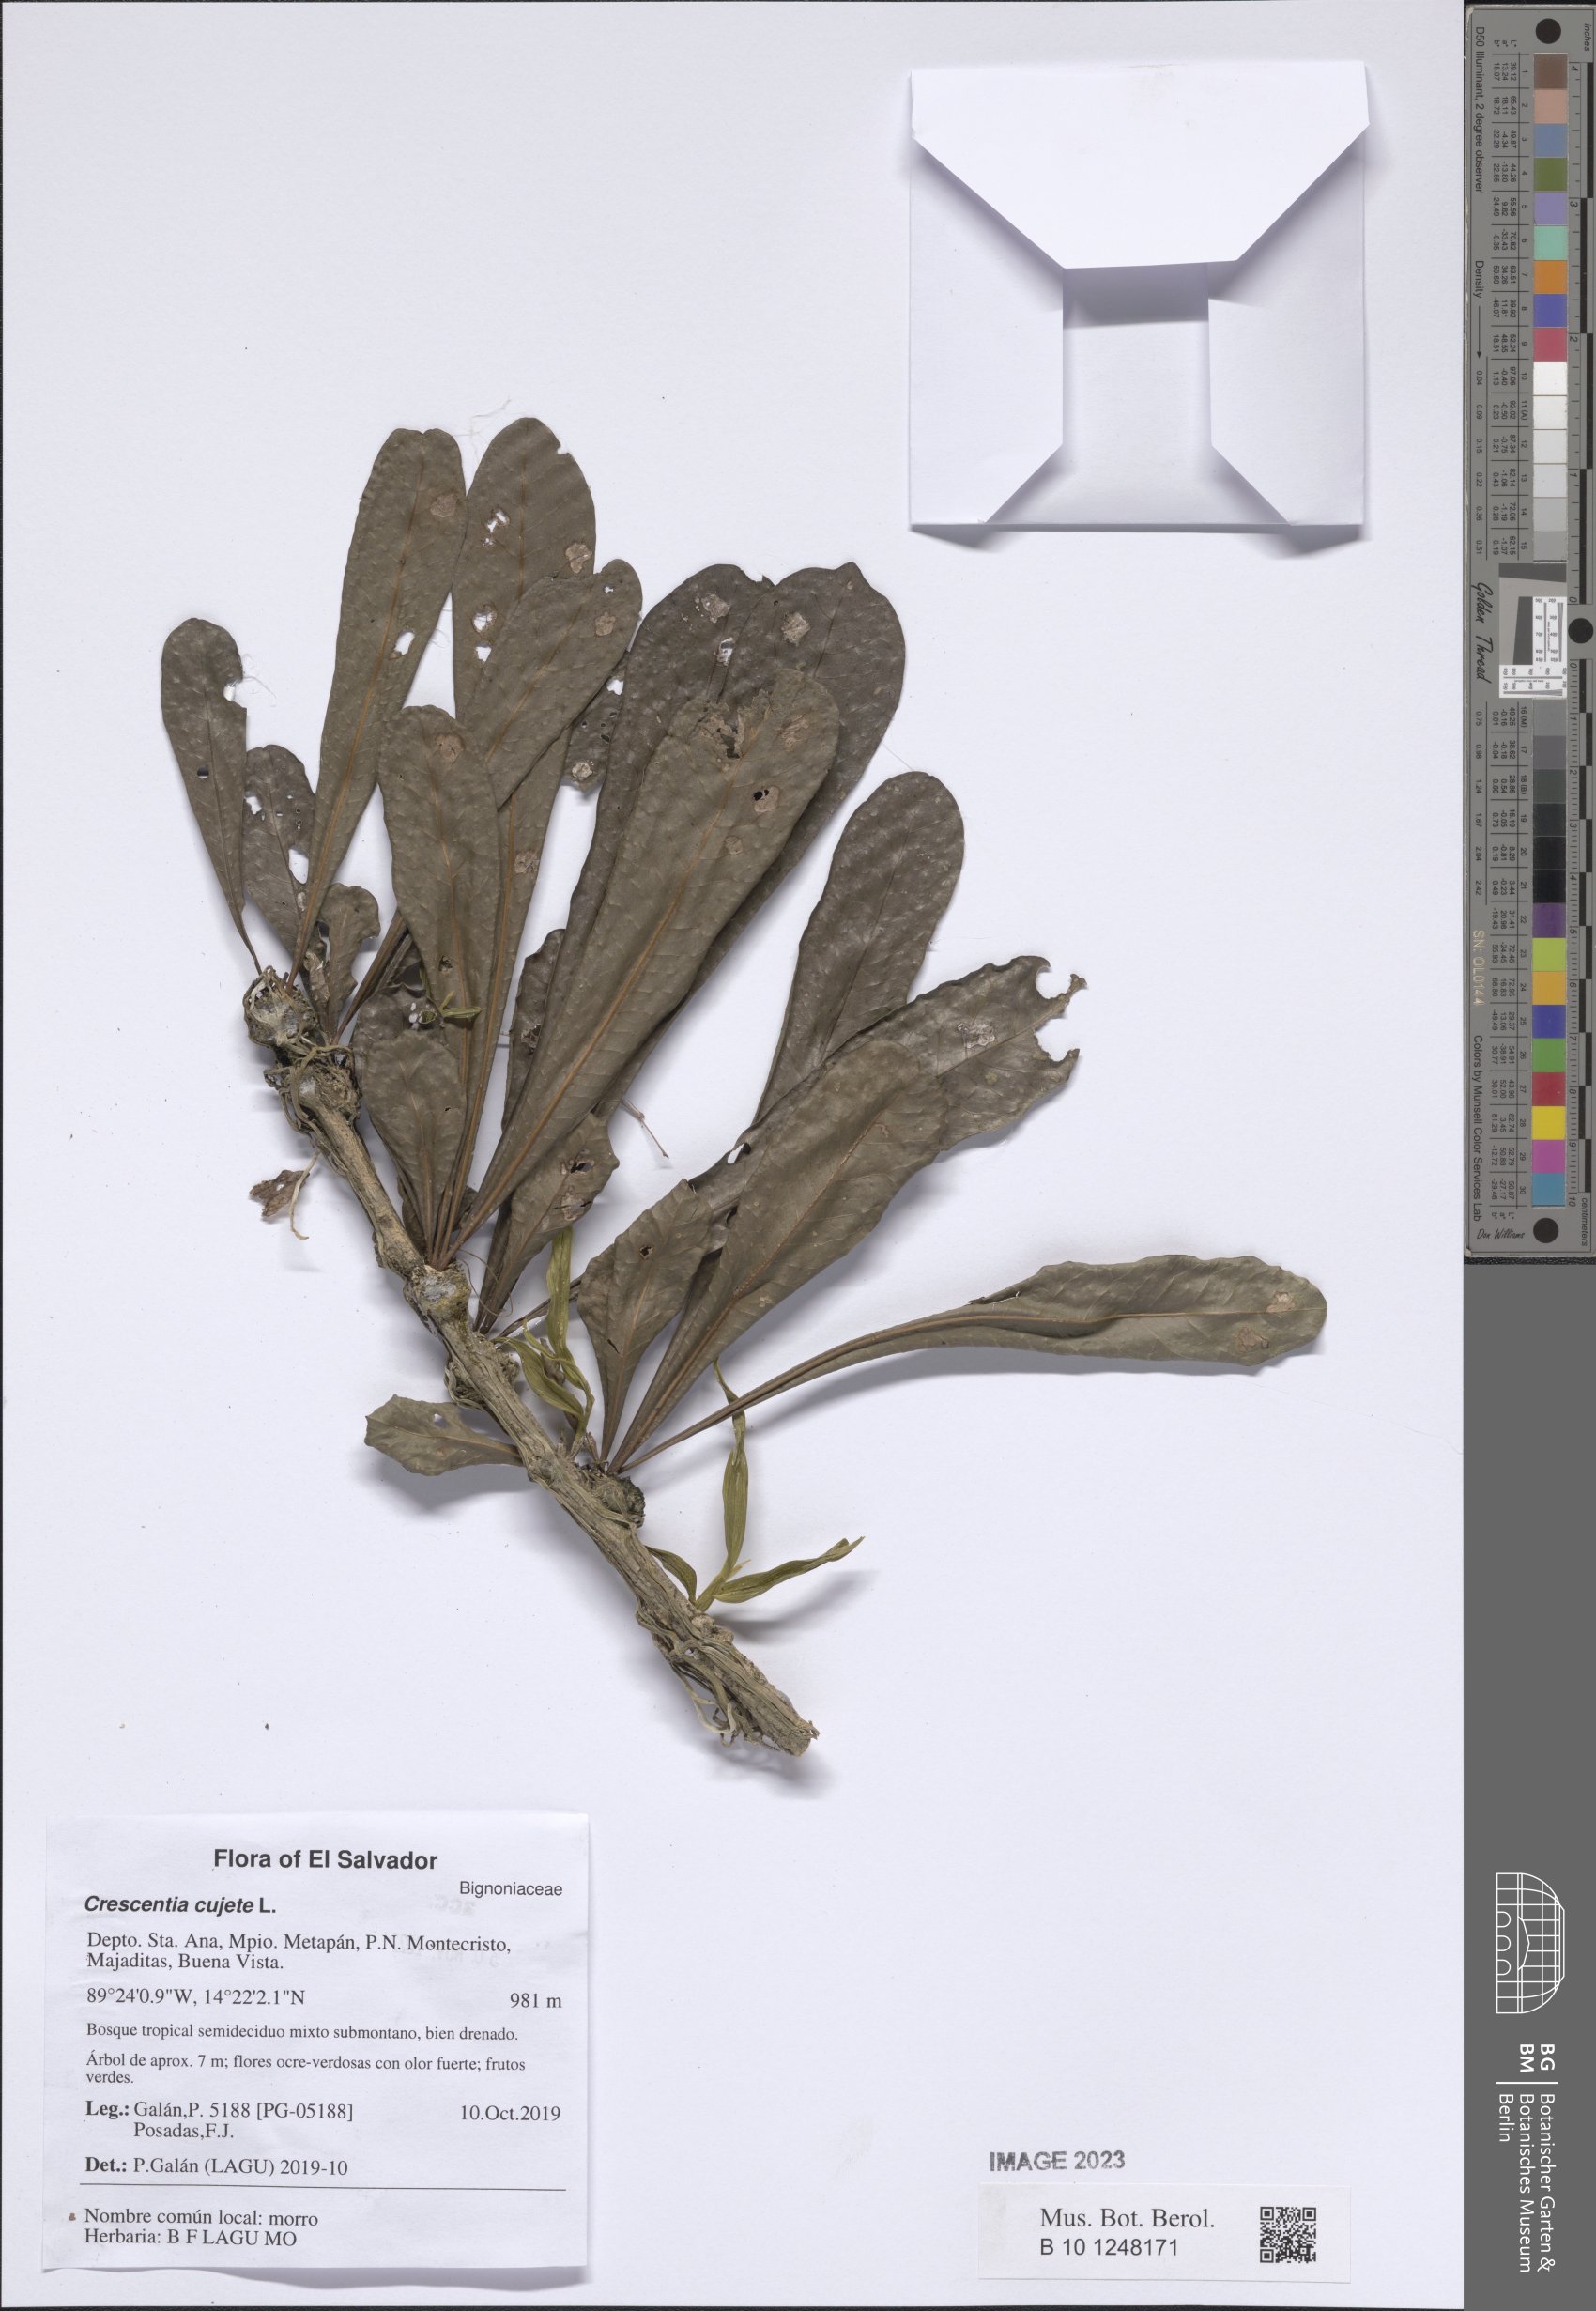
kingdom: Plantae
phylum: Tracheophyta
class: Magnoliopsida
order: Lamiales
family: Bignoniaceae
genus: Crescentia
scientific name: Crescentia cujete
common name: Calabash
